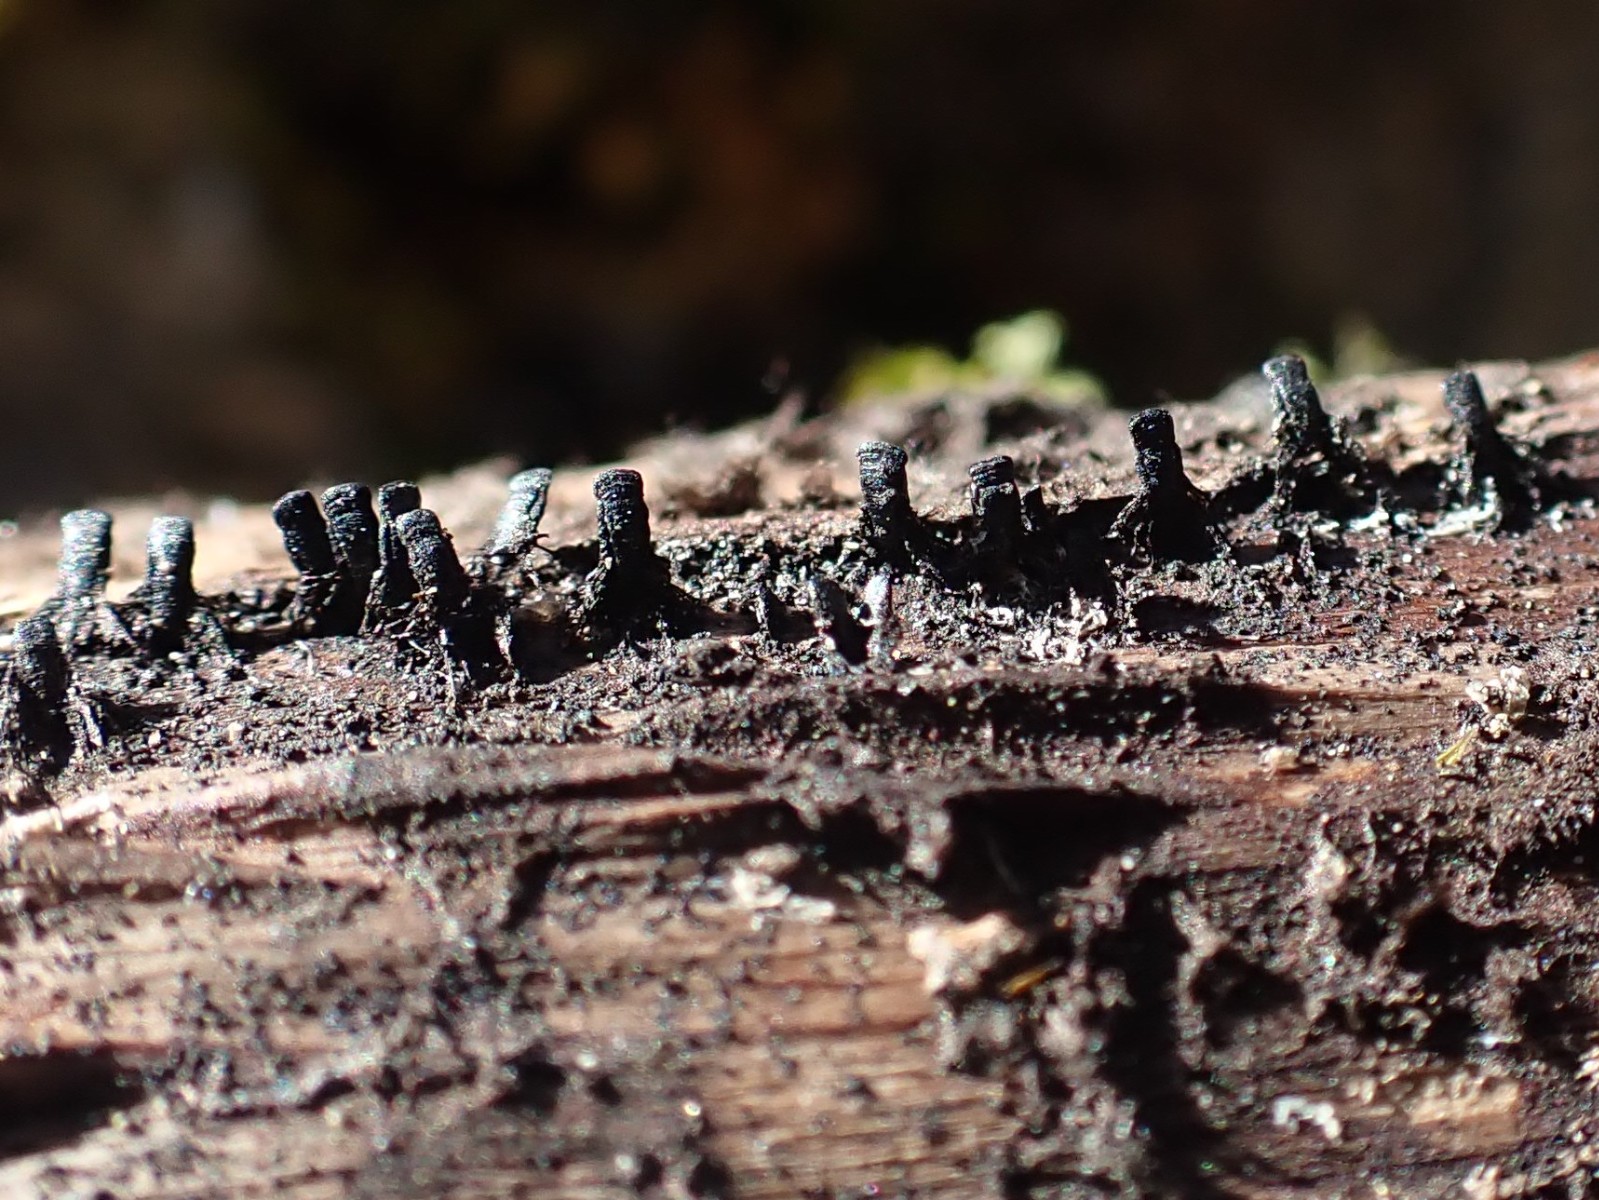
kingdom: Fungi
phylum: Ascomycota
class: Eurotiomycetes
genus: Glyphium
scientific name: Glyphium elatum
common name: kuløkse
